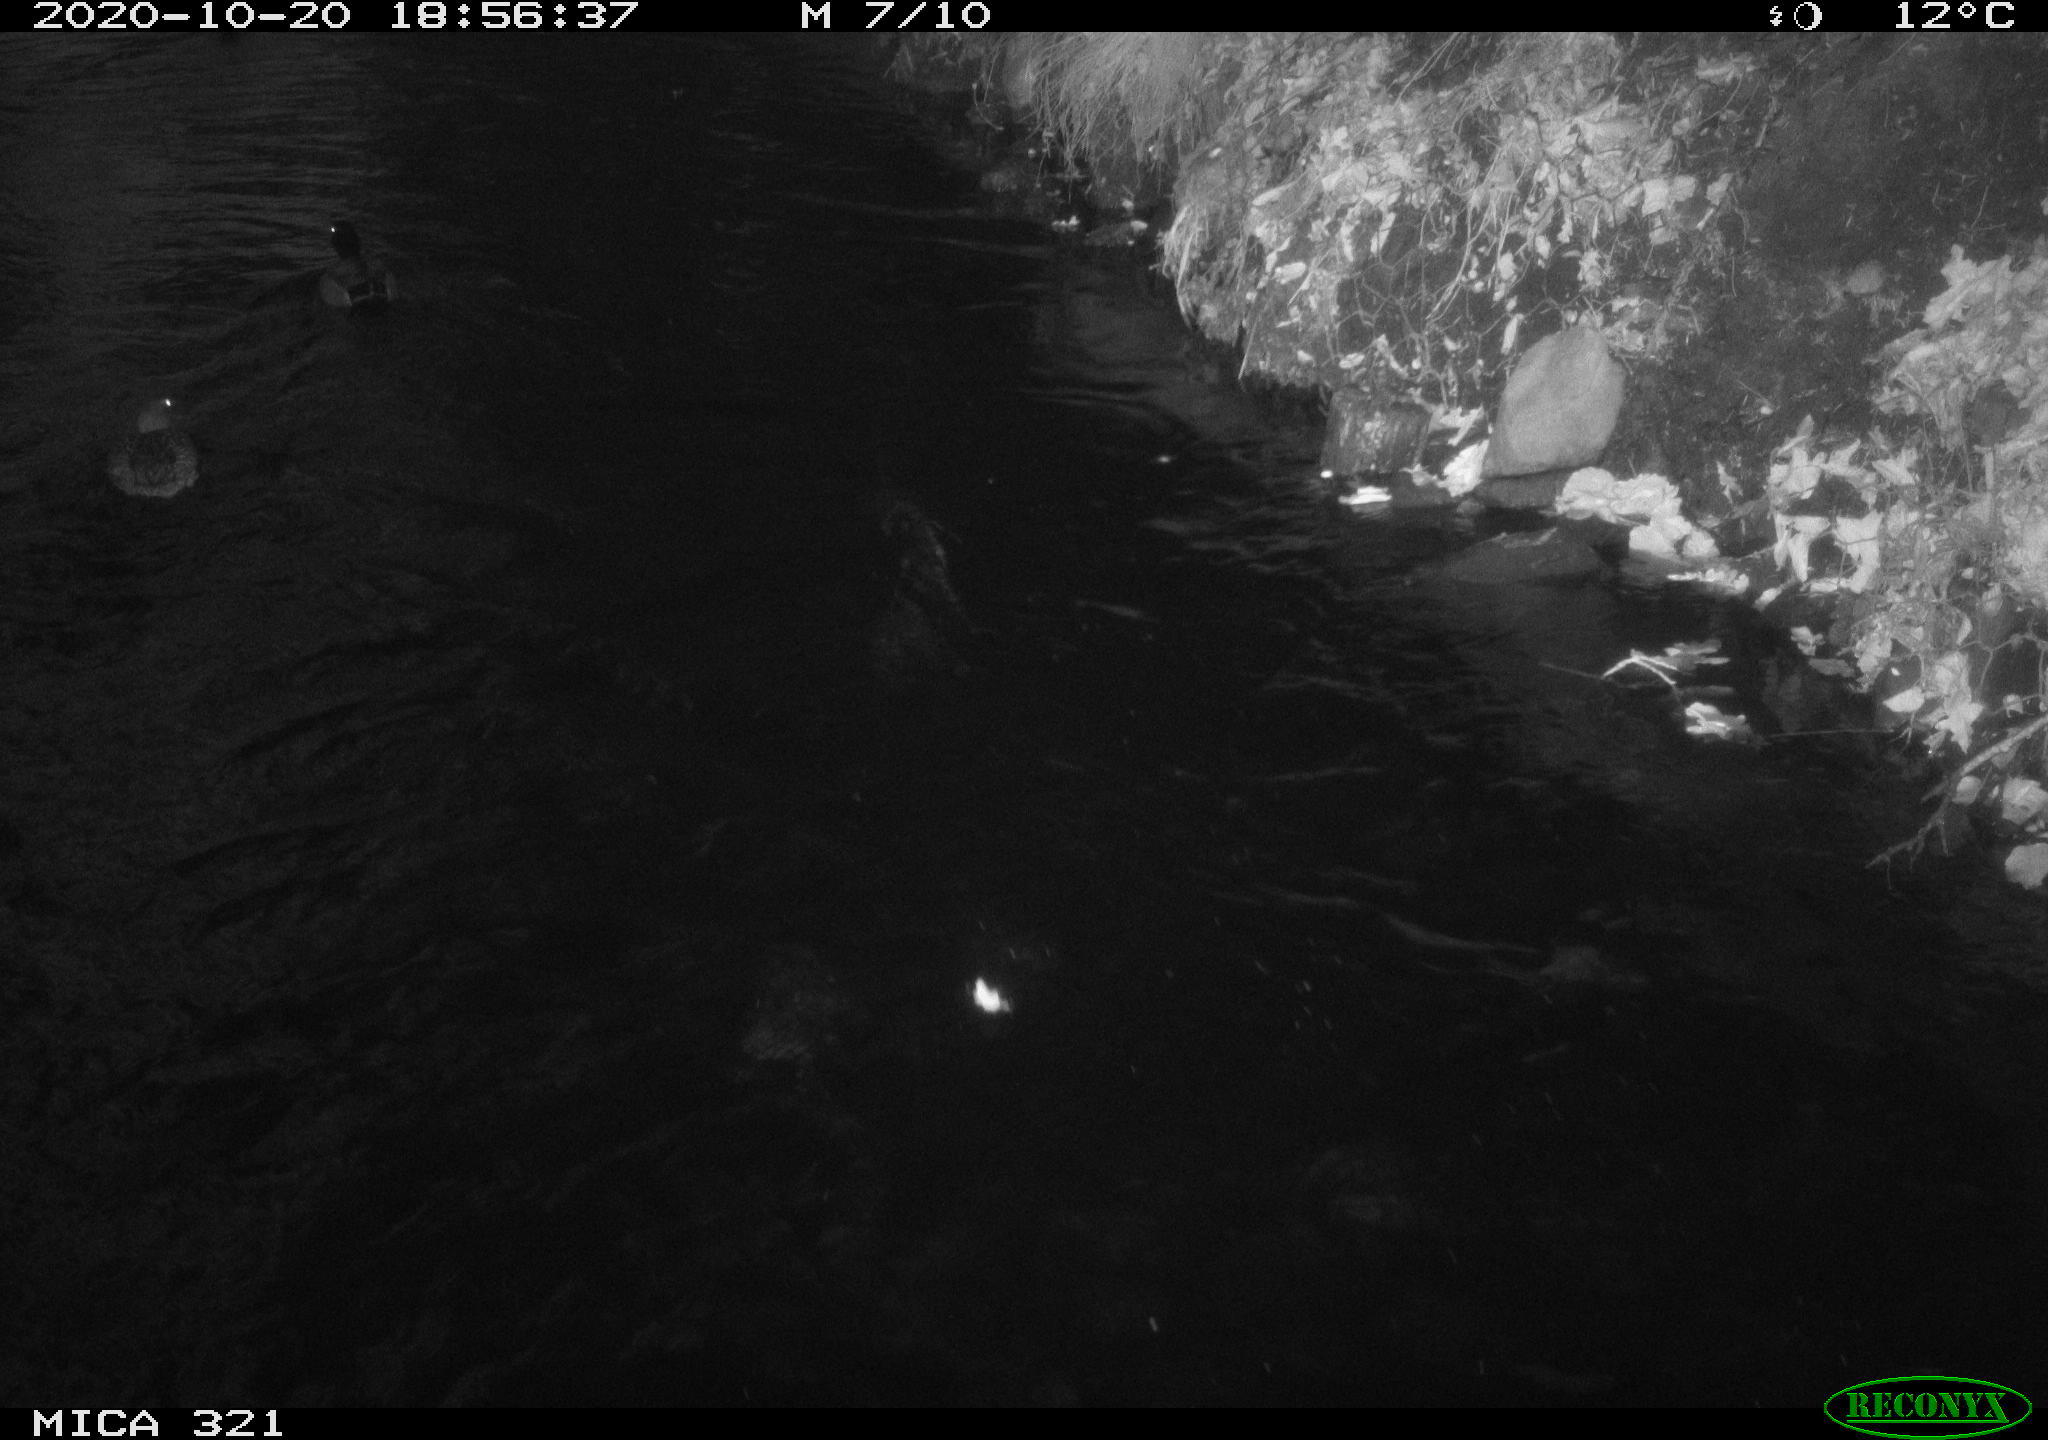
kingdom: Animalia
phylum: Chordata
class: Aves
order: Anseriformes
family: Anatidae
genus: Anas
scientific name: Anas platyrhynchos
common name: Mallard
